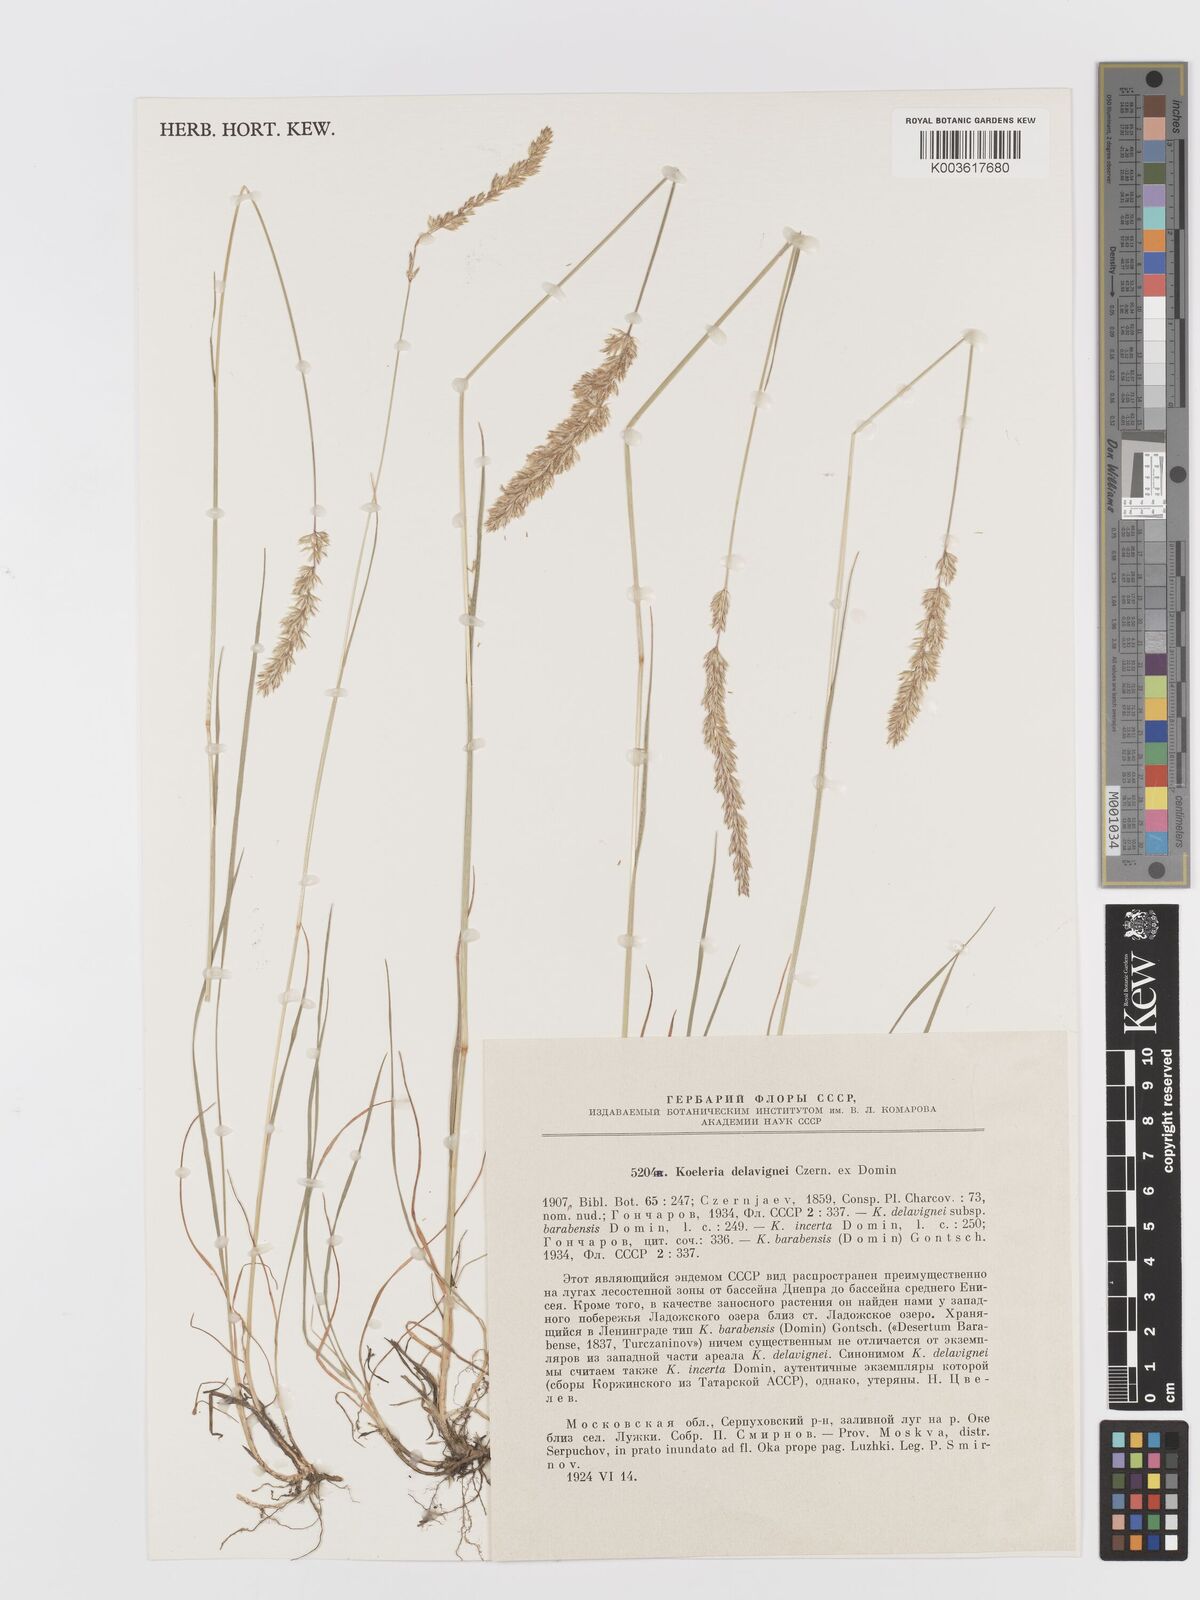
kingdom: Plantae
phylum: Tracheophyta
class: Liliopsida
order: Poales
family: Poaceae
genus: Koeleria
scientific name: Koeleria delavignei
